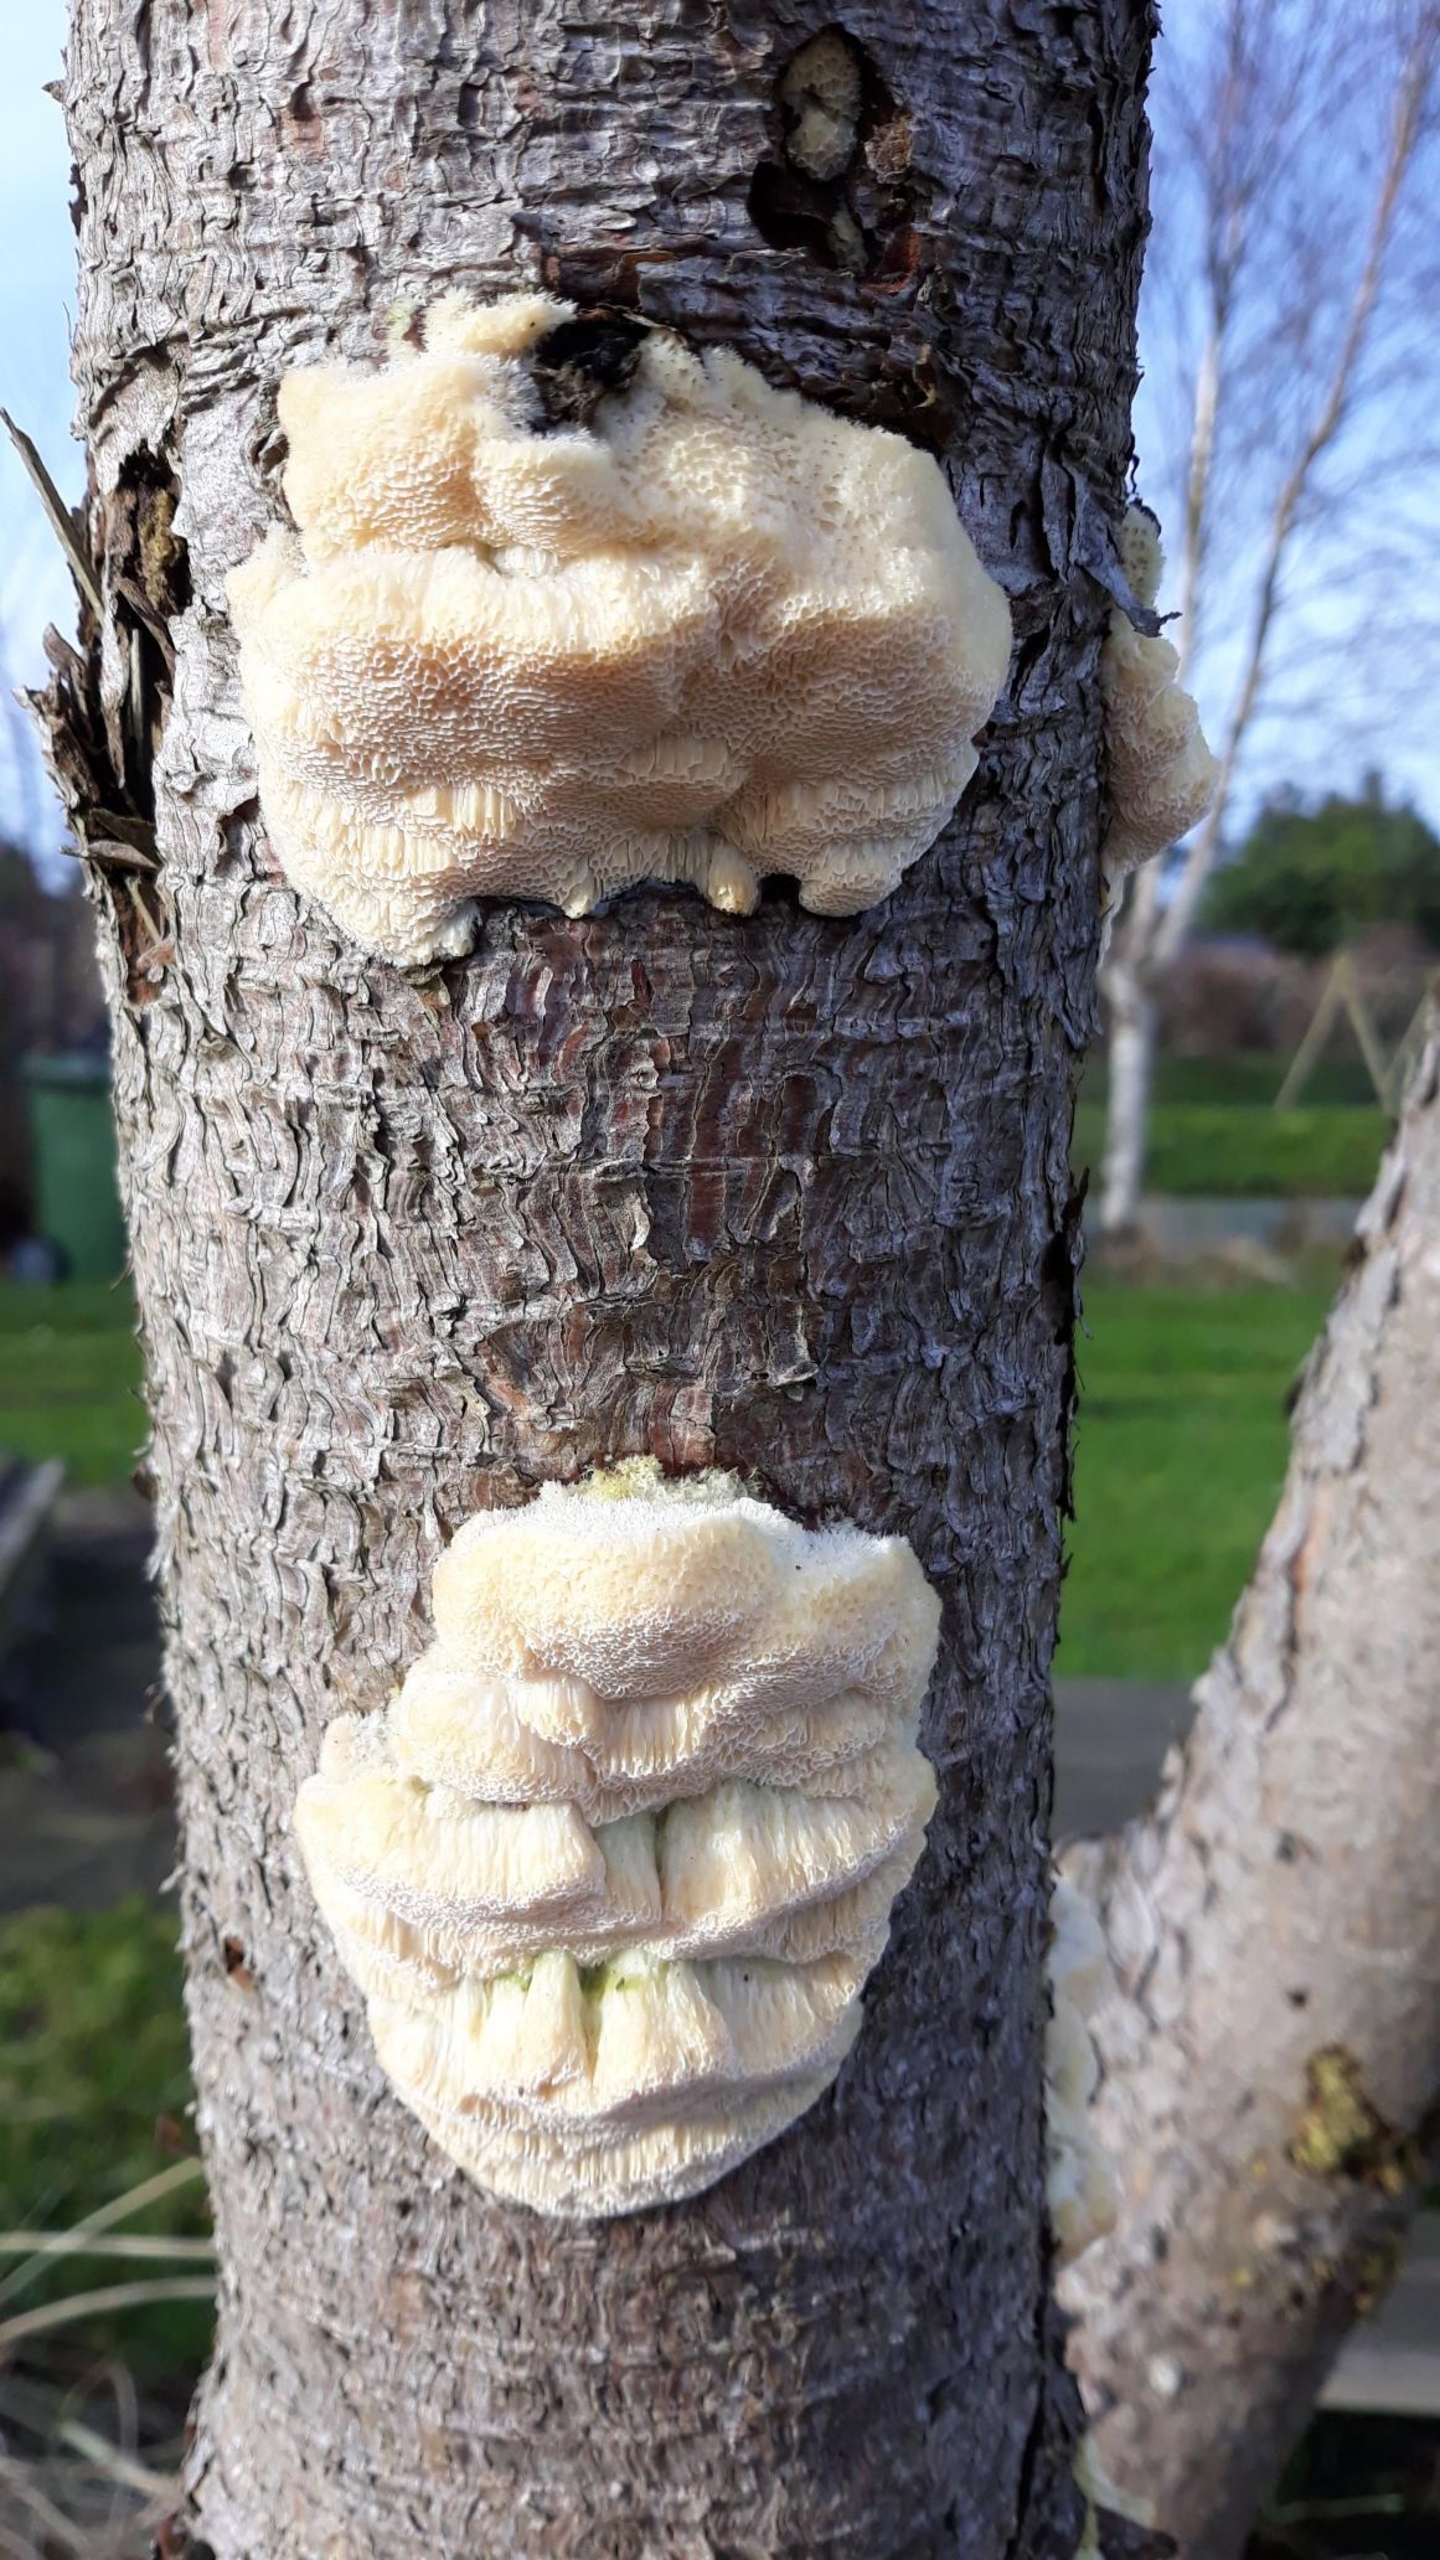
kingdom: Fungi
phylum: Basidiomycota
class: Agaricomycetes
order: Polyporales
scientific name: Polyporales
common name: Poresvampordenen
